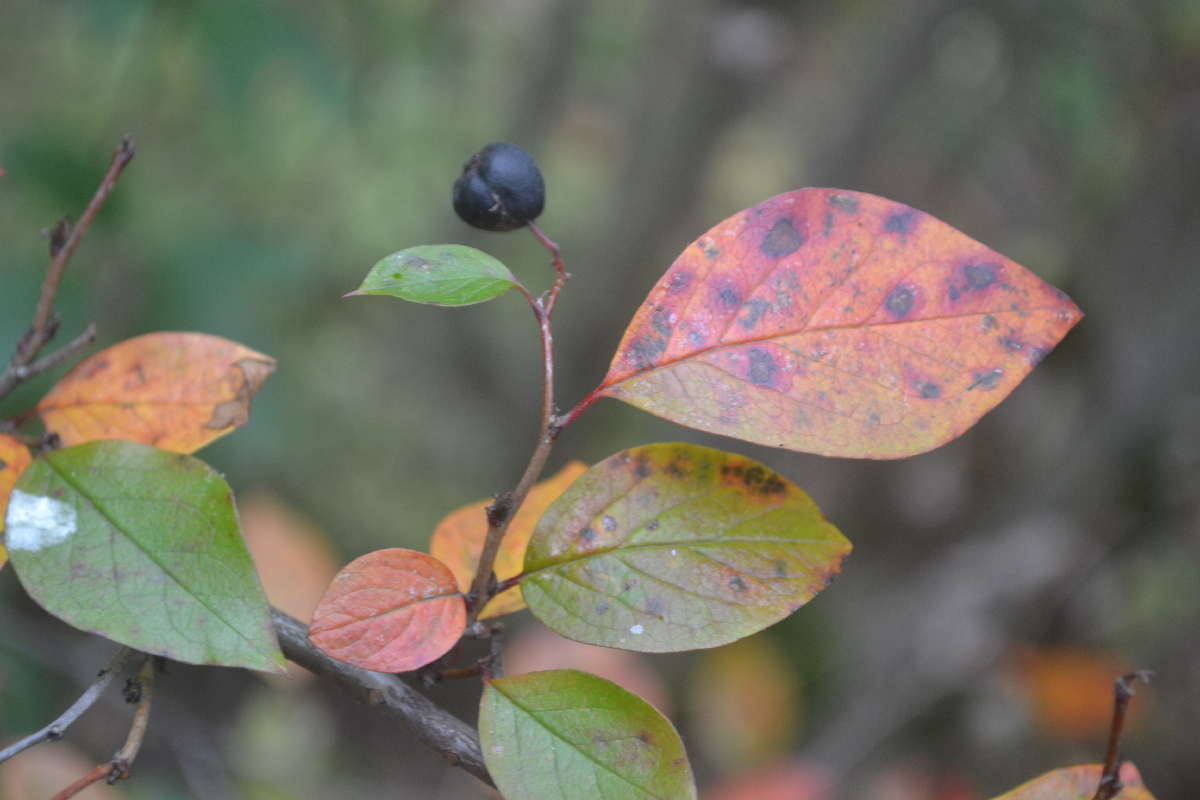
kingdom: Plantae
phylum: Tracheophyta
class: Magnoliopsida
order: Rosales
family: Rosaceae
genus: Cotoneaster
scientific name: Cotoneaster acutifolius
